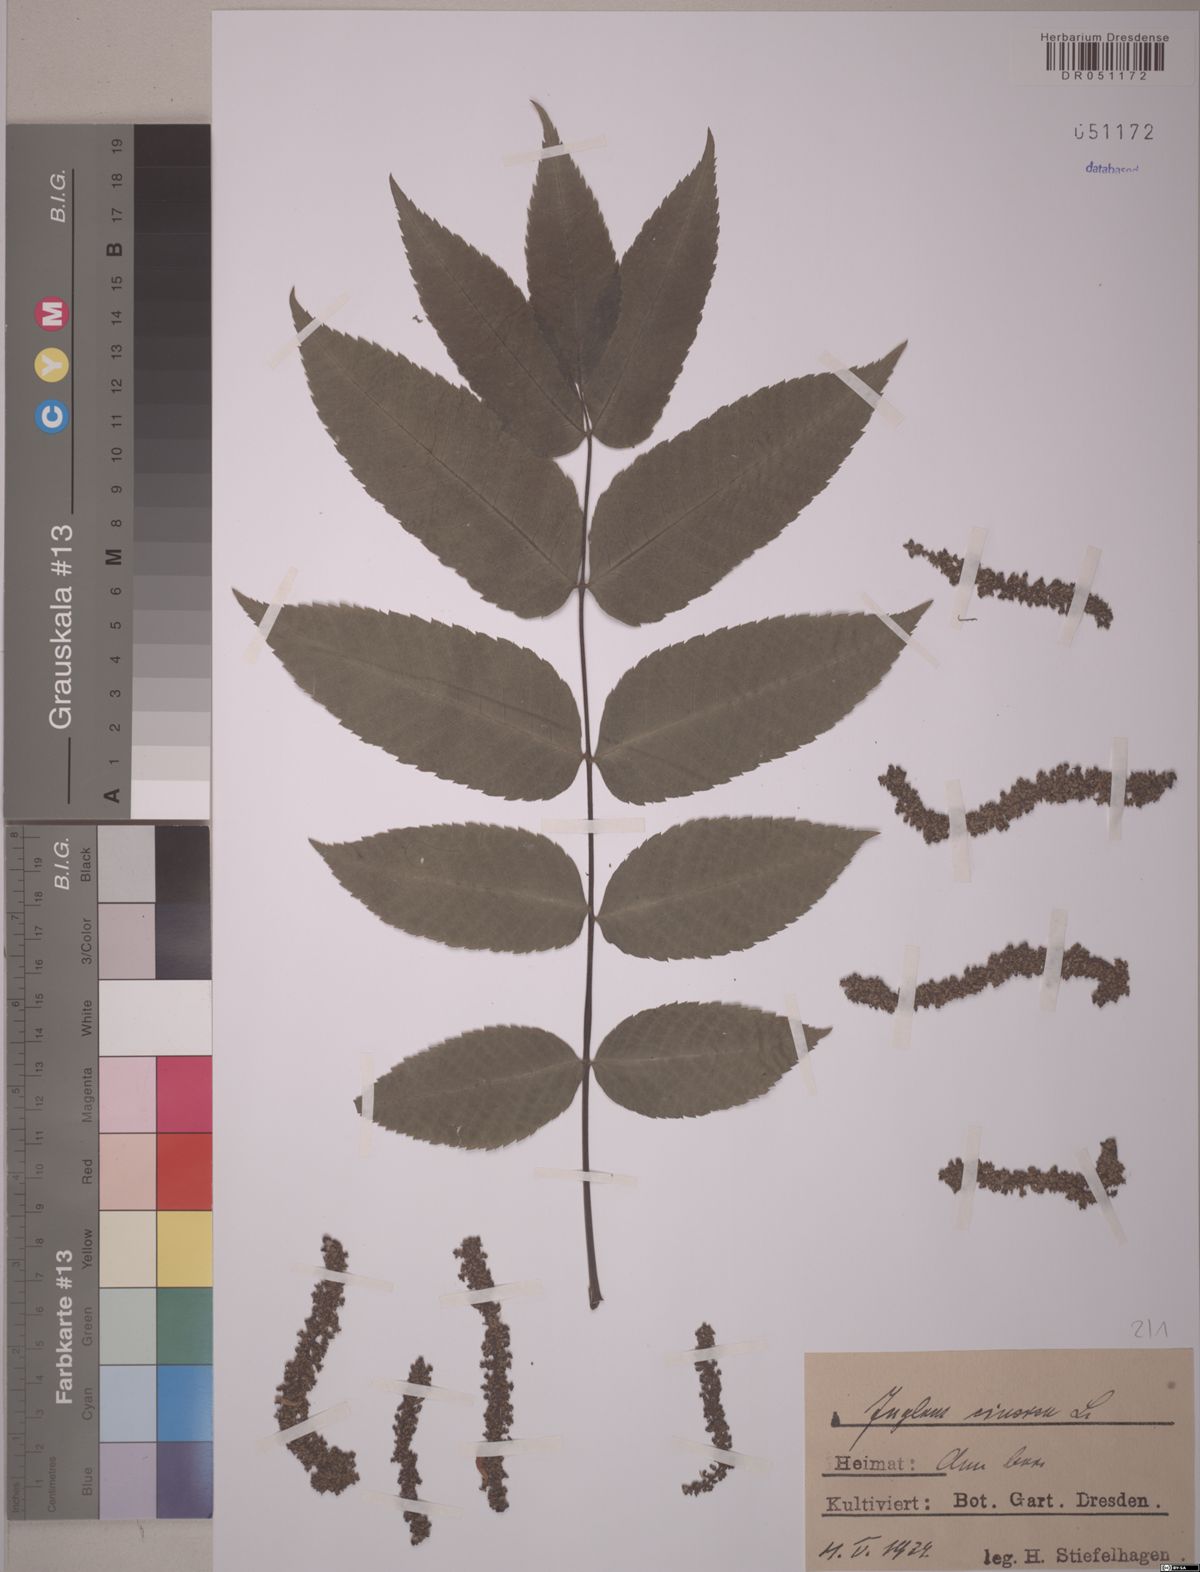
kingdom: Plantae
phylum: Tracheophyta
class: Magnoliopsida
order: Fagales
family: Juglandaceae
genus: Juglans
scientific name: Juglans cinerea
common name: Butternut
